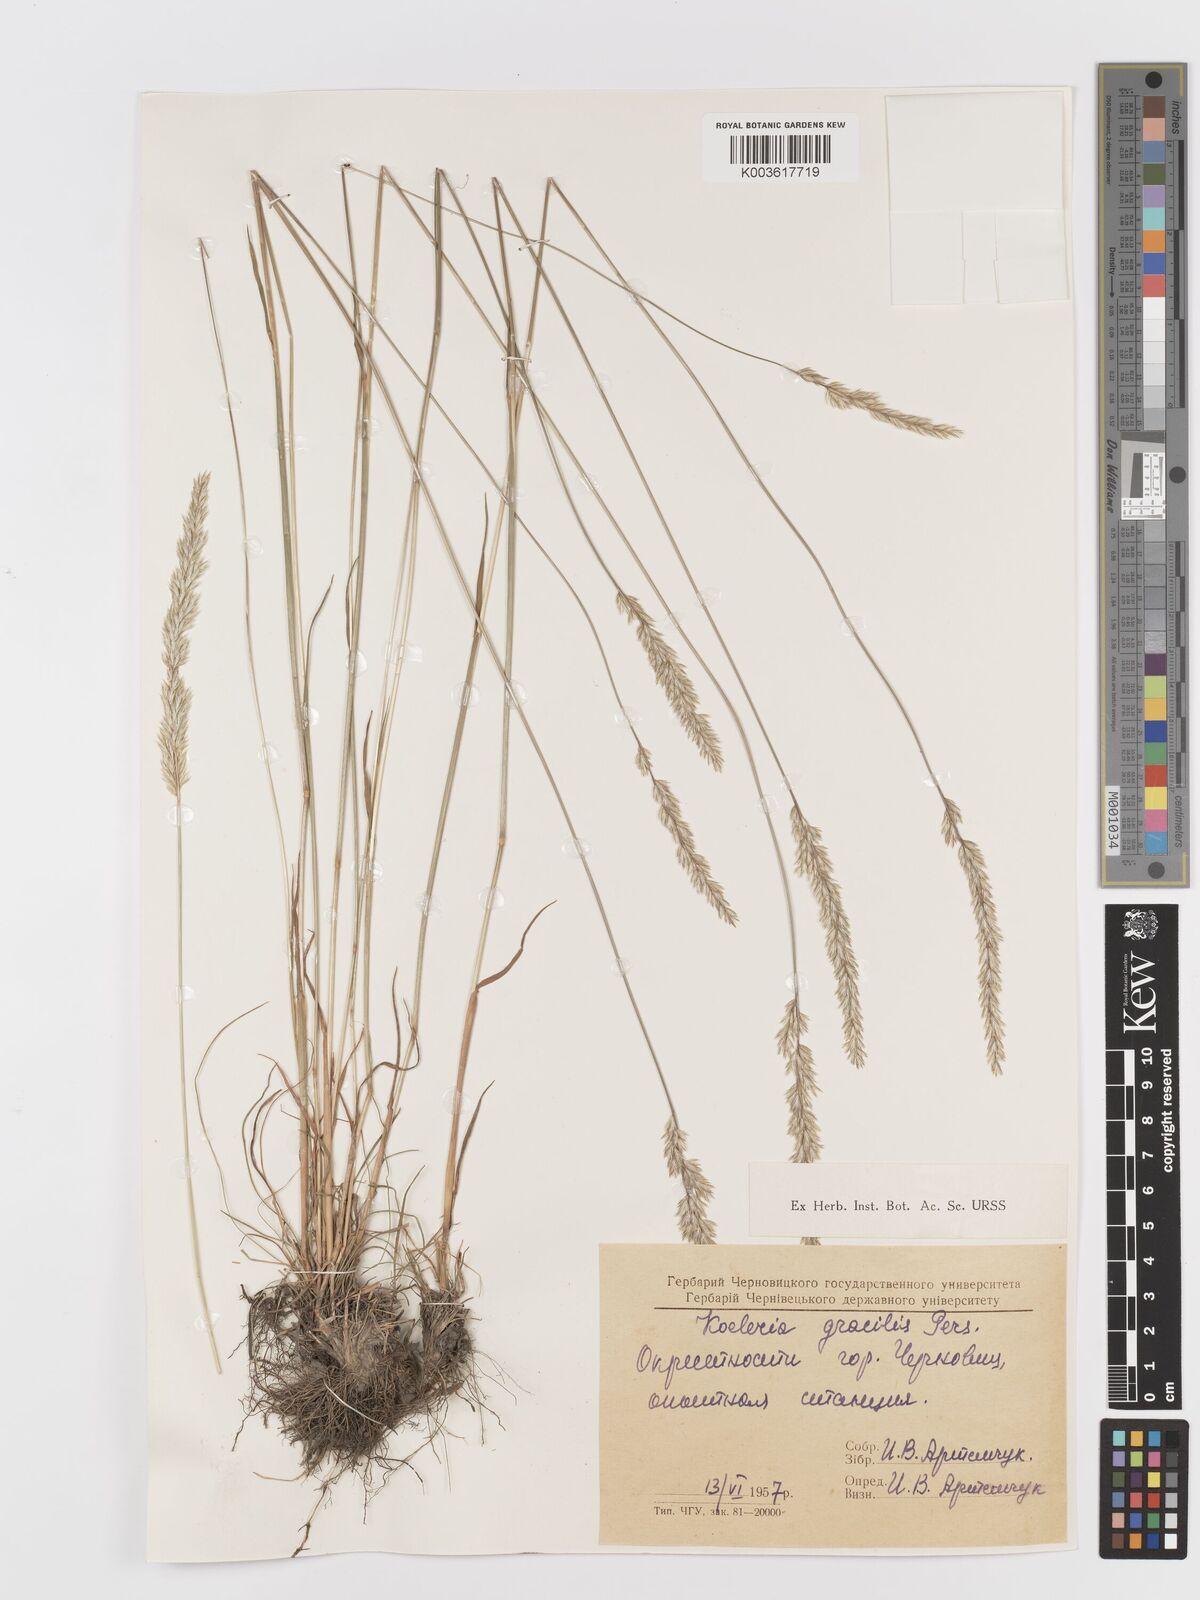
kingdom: Plantae
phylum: Tracheophyta
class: Liliopsida
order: Poales
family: Poaceae
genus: Koeleria
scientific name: Koeleria macrantha
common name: Crested hair-grass
